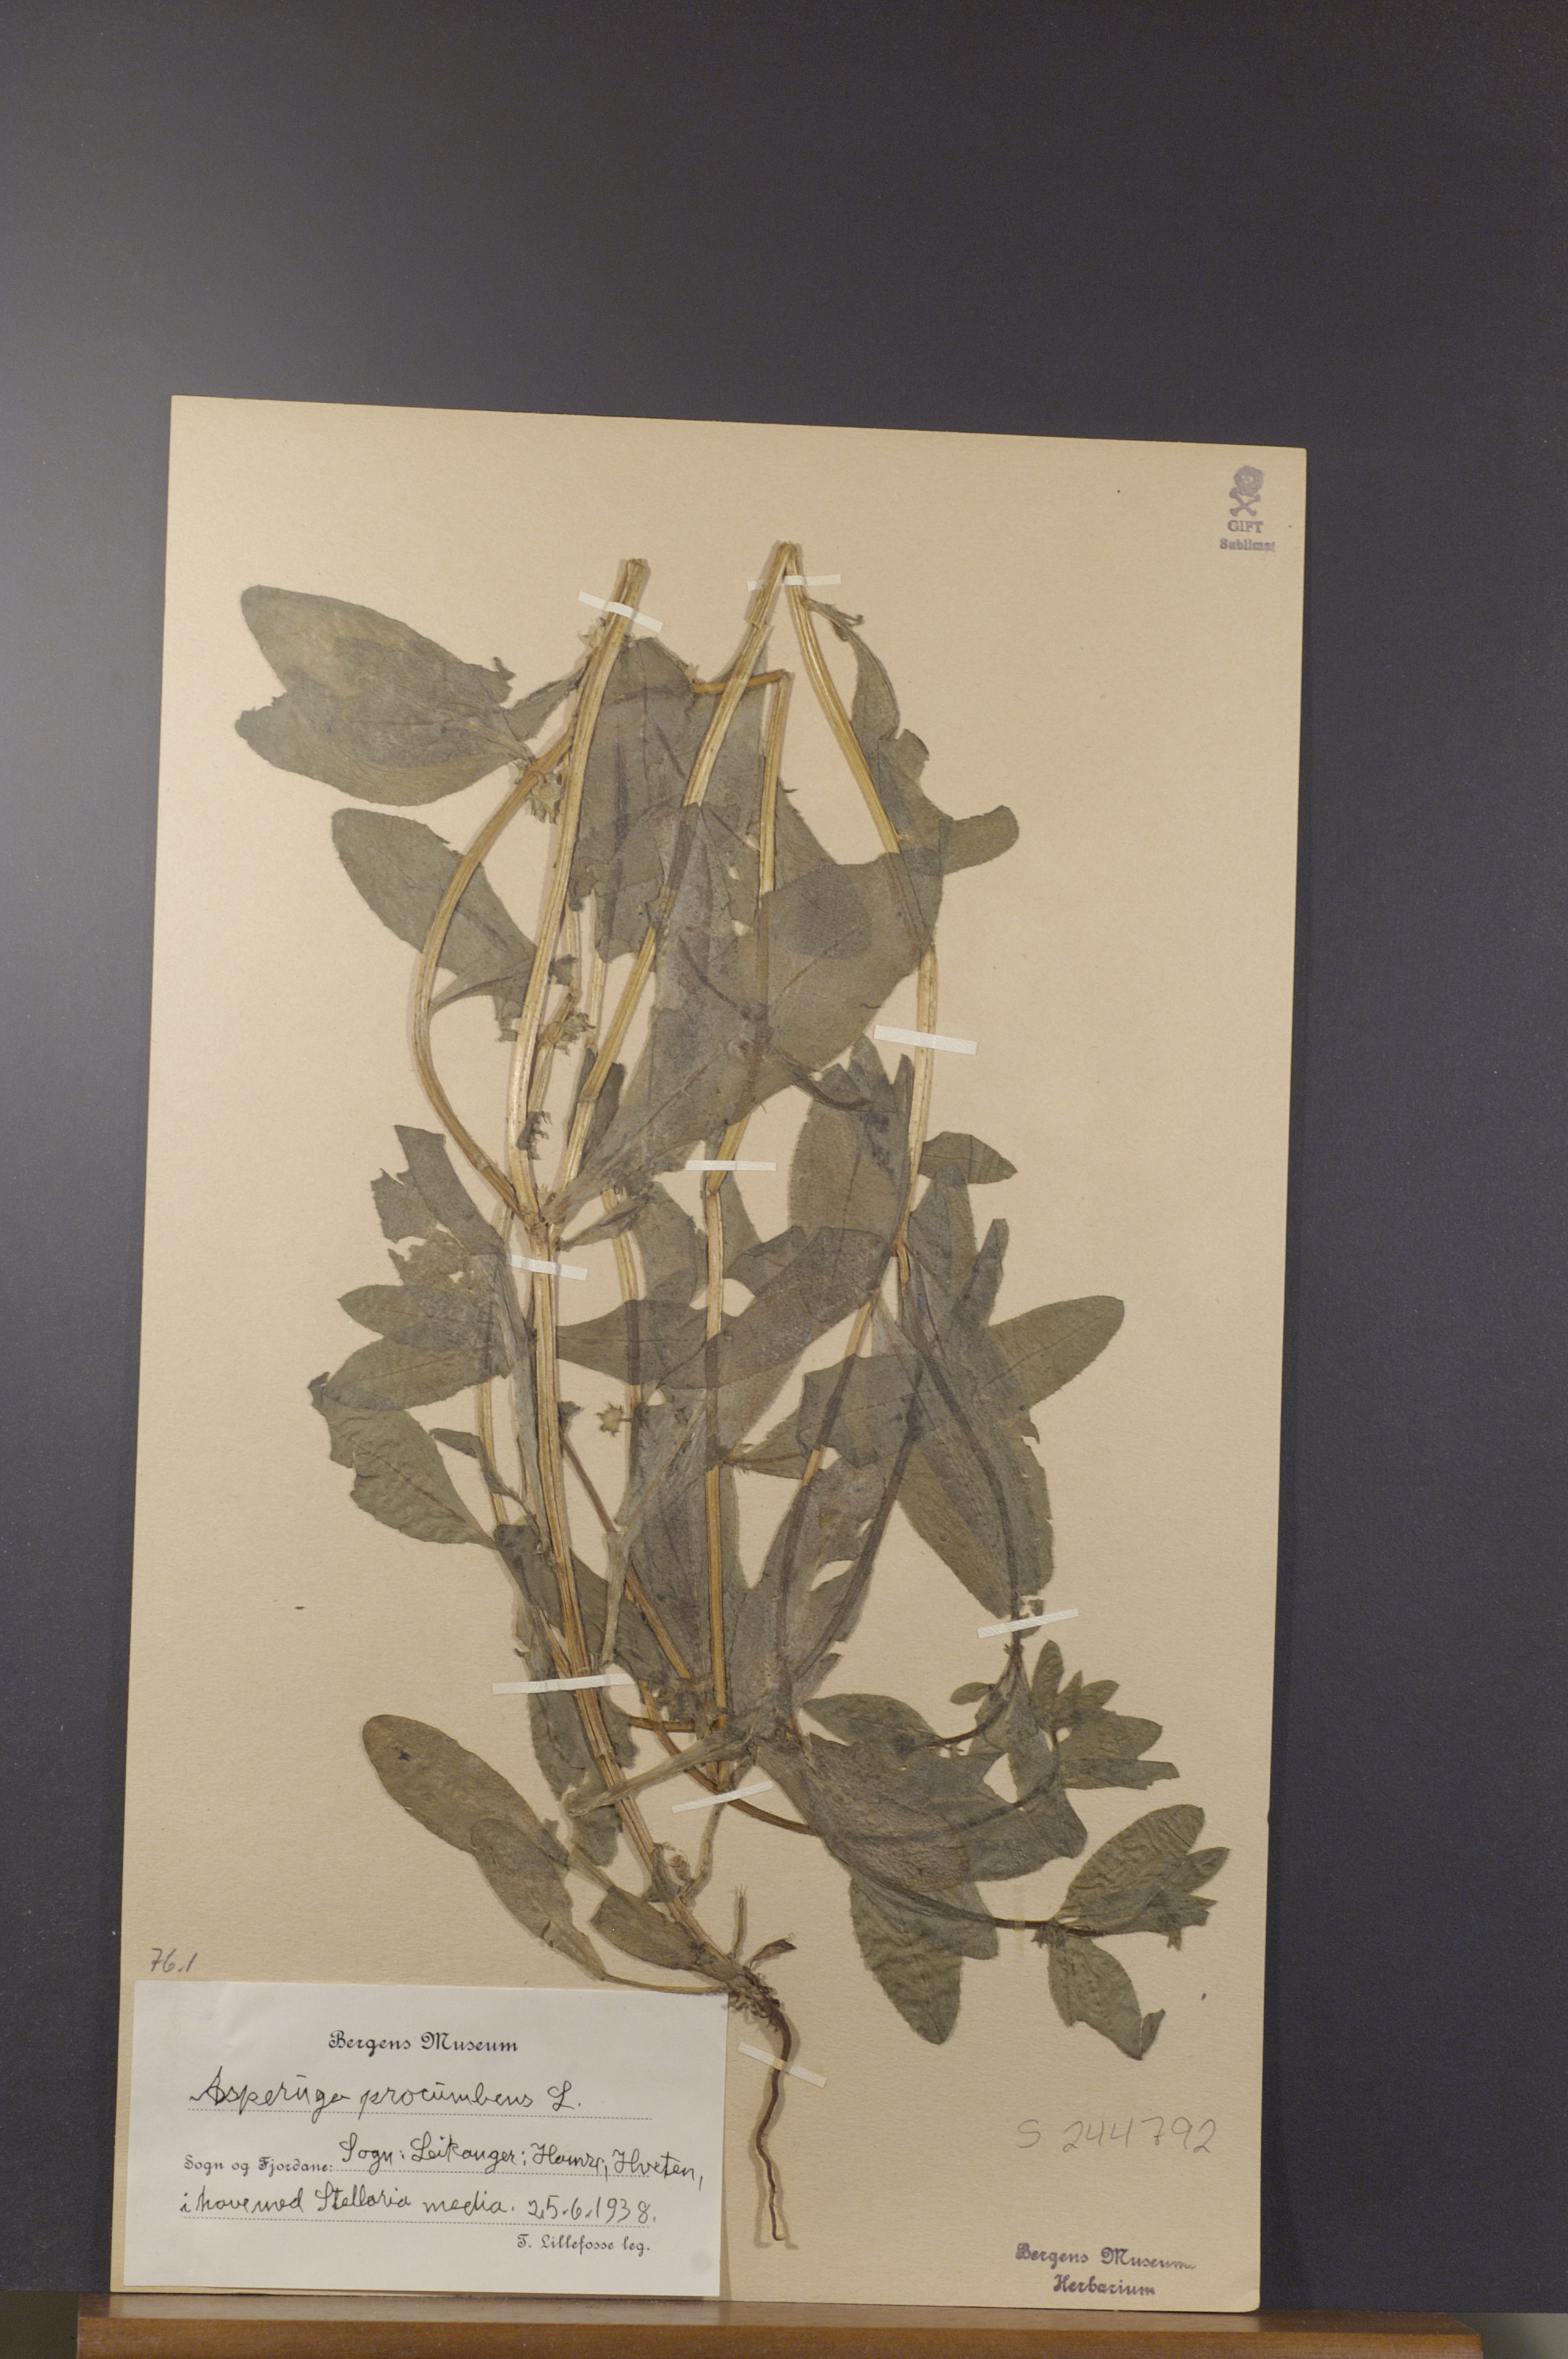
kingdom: Plantae
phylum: Tracheophyta
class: Magnoliopsida
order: Boraginales
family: Boraginaceae
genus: Asperugo
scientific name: Asperugo procumbens
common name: Madwort
